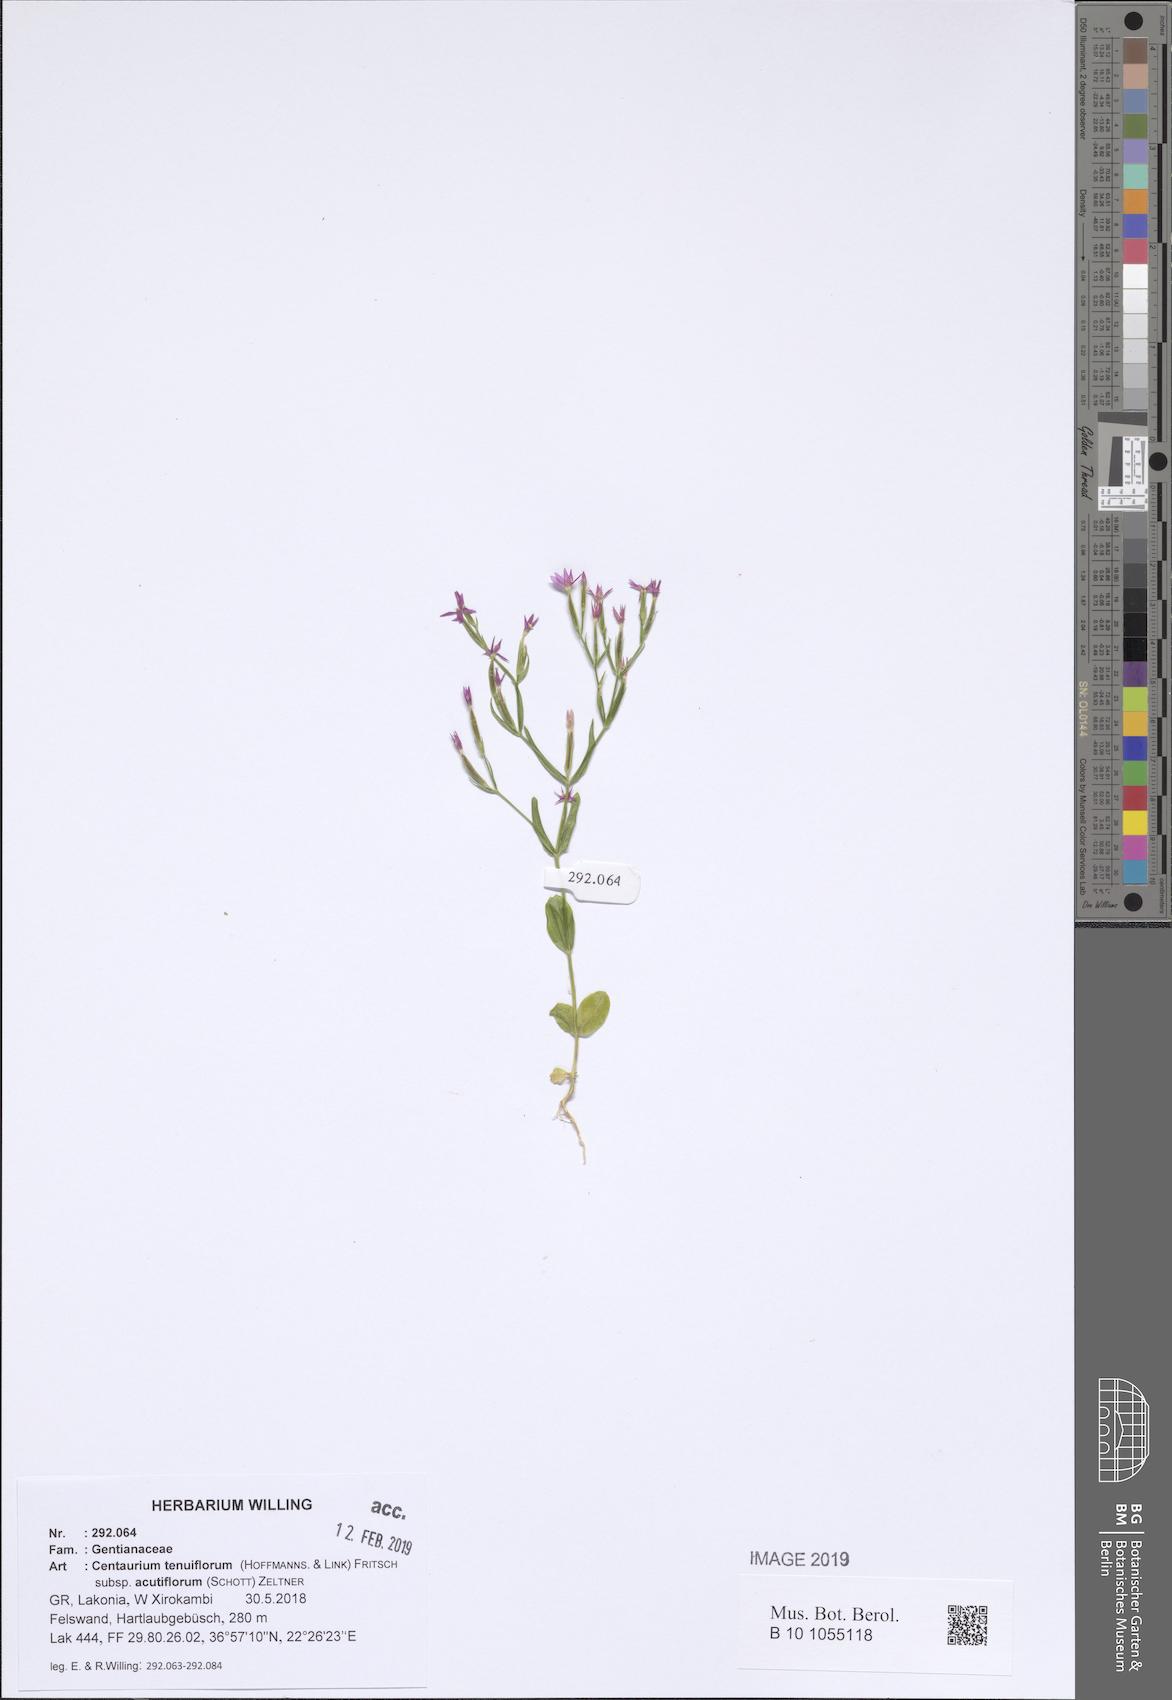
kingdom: Plantae
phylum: Tracheophyta
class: Magnoliopsida
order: Gentianales
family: Gentianaceae
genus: Centaurium
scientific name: Centaurium tenuiflorum
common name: Slender centaury
